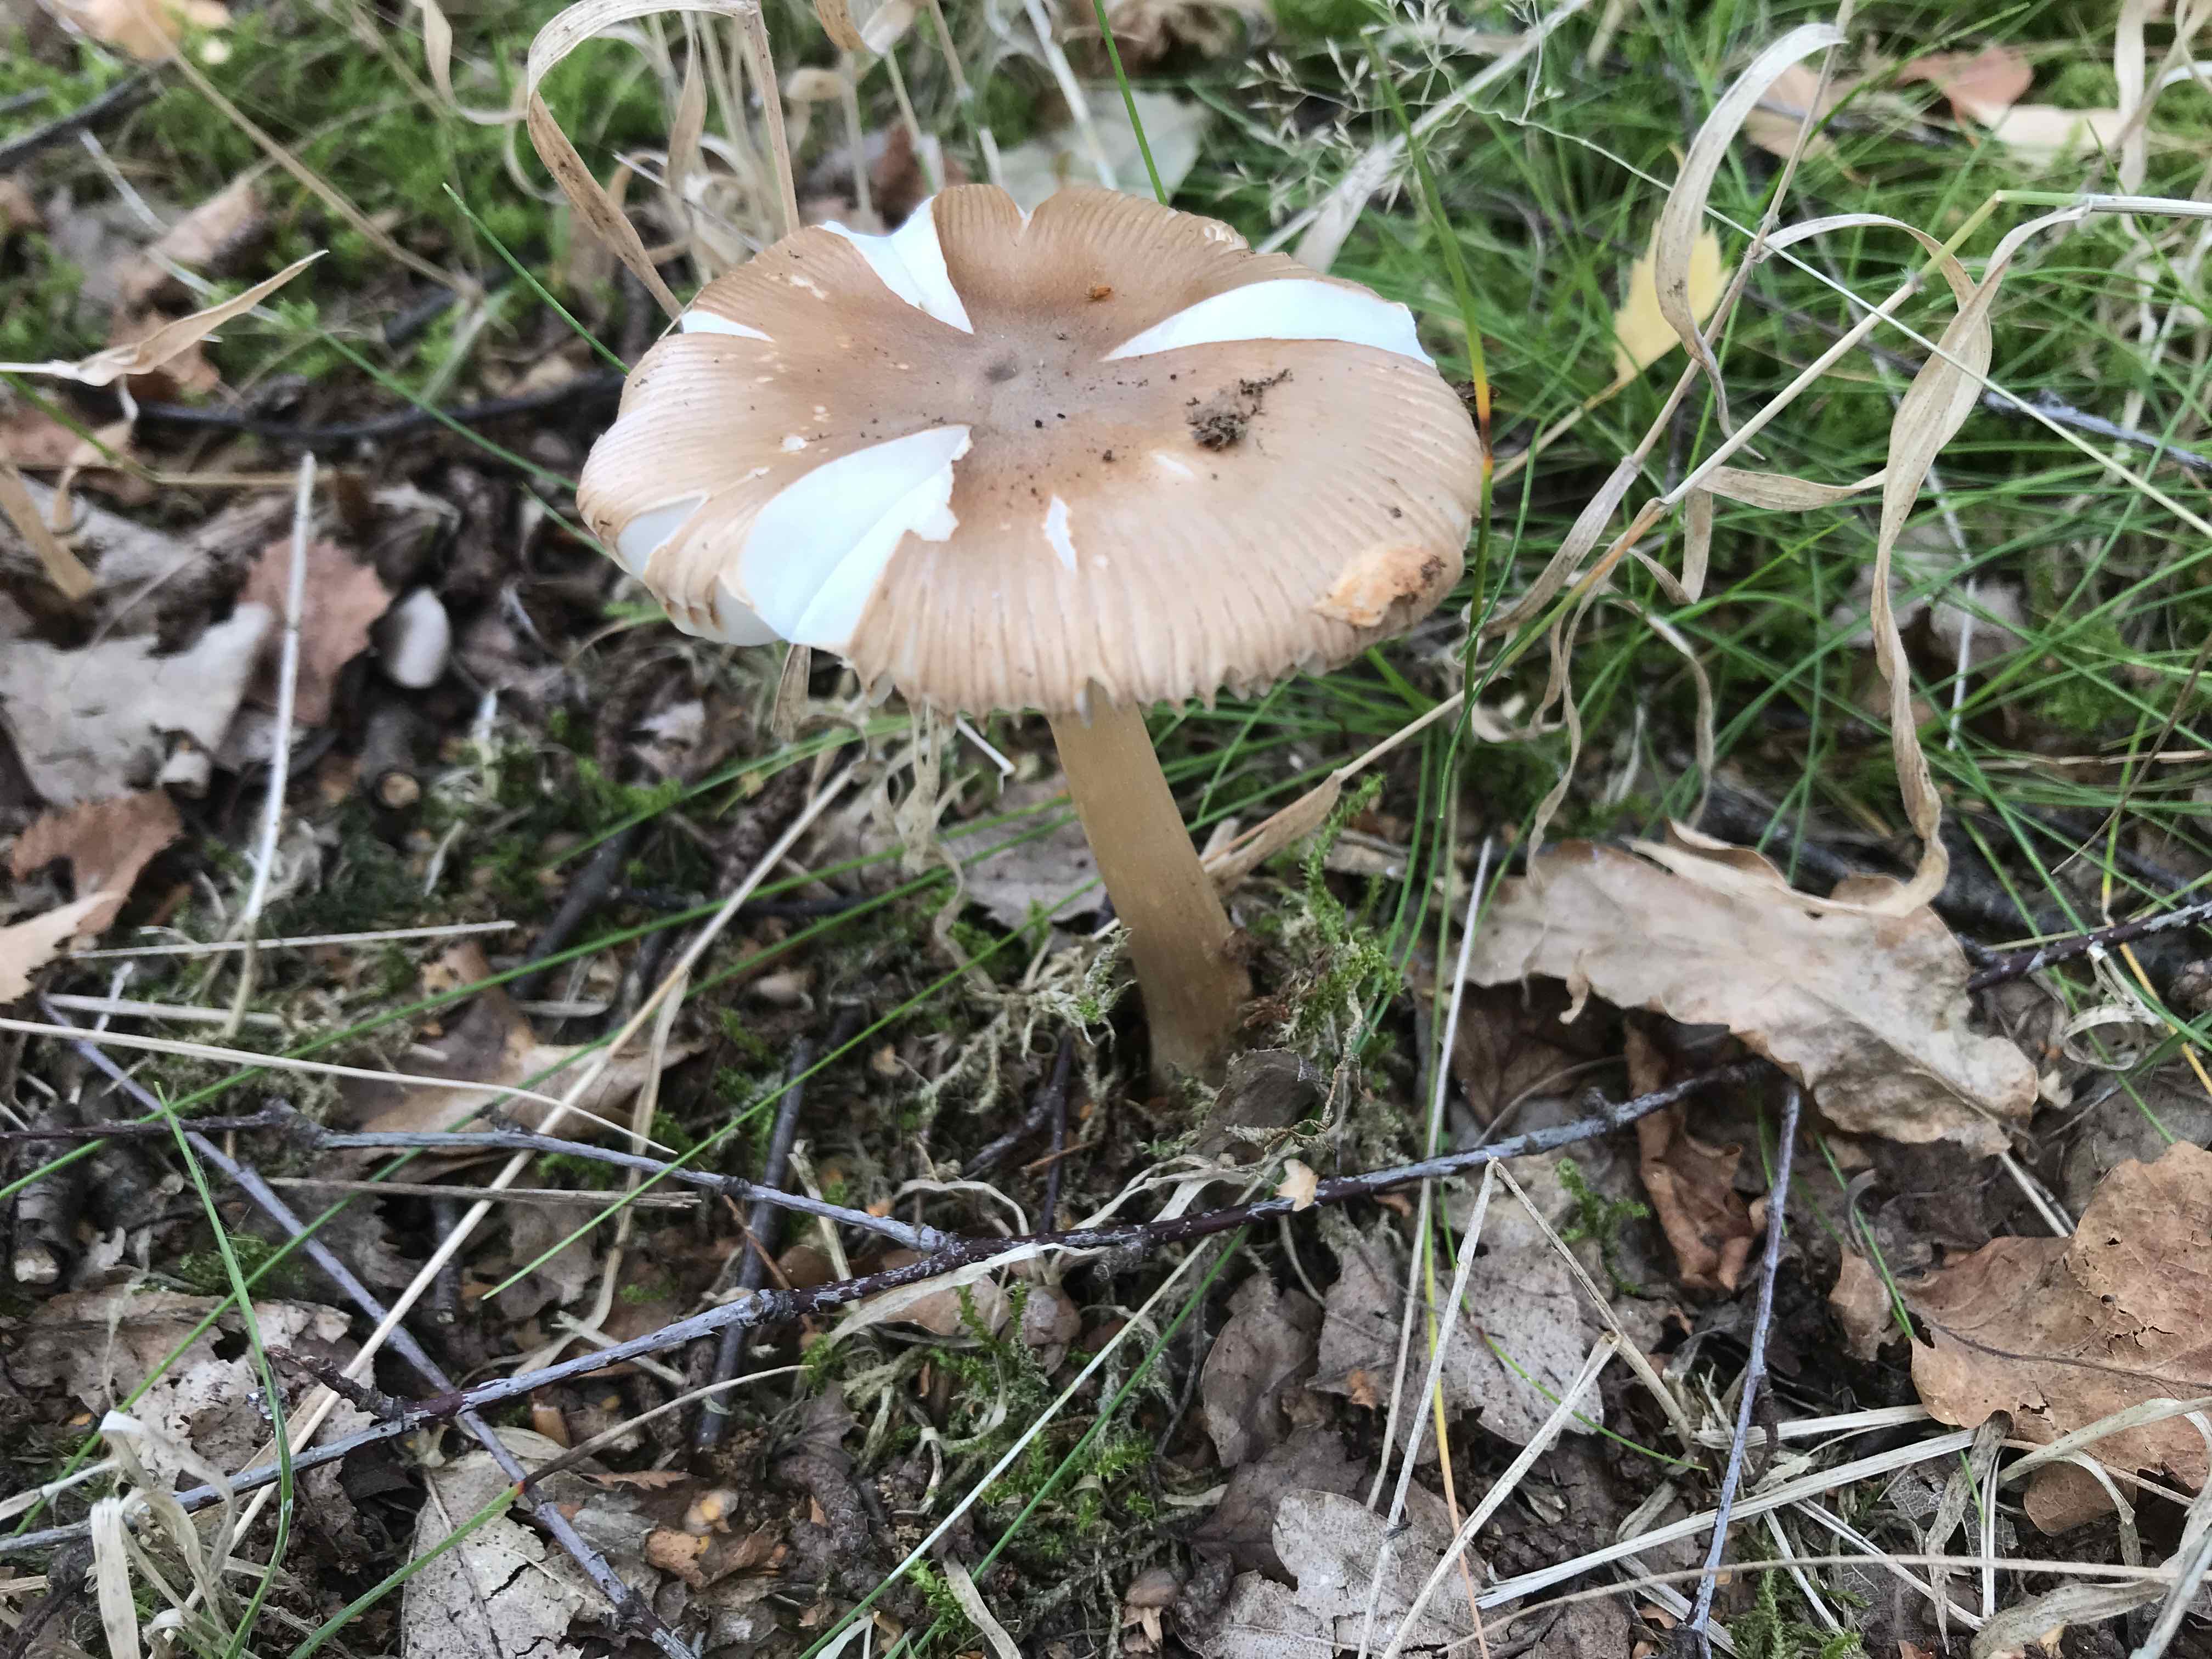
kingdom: Fungi
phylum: Basidiomycota
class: Agaricomycetes
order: Agaricales
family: Amanitaceae
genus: Amanita
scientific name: Amanita fulva
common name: brun kam-fluesvamp
